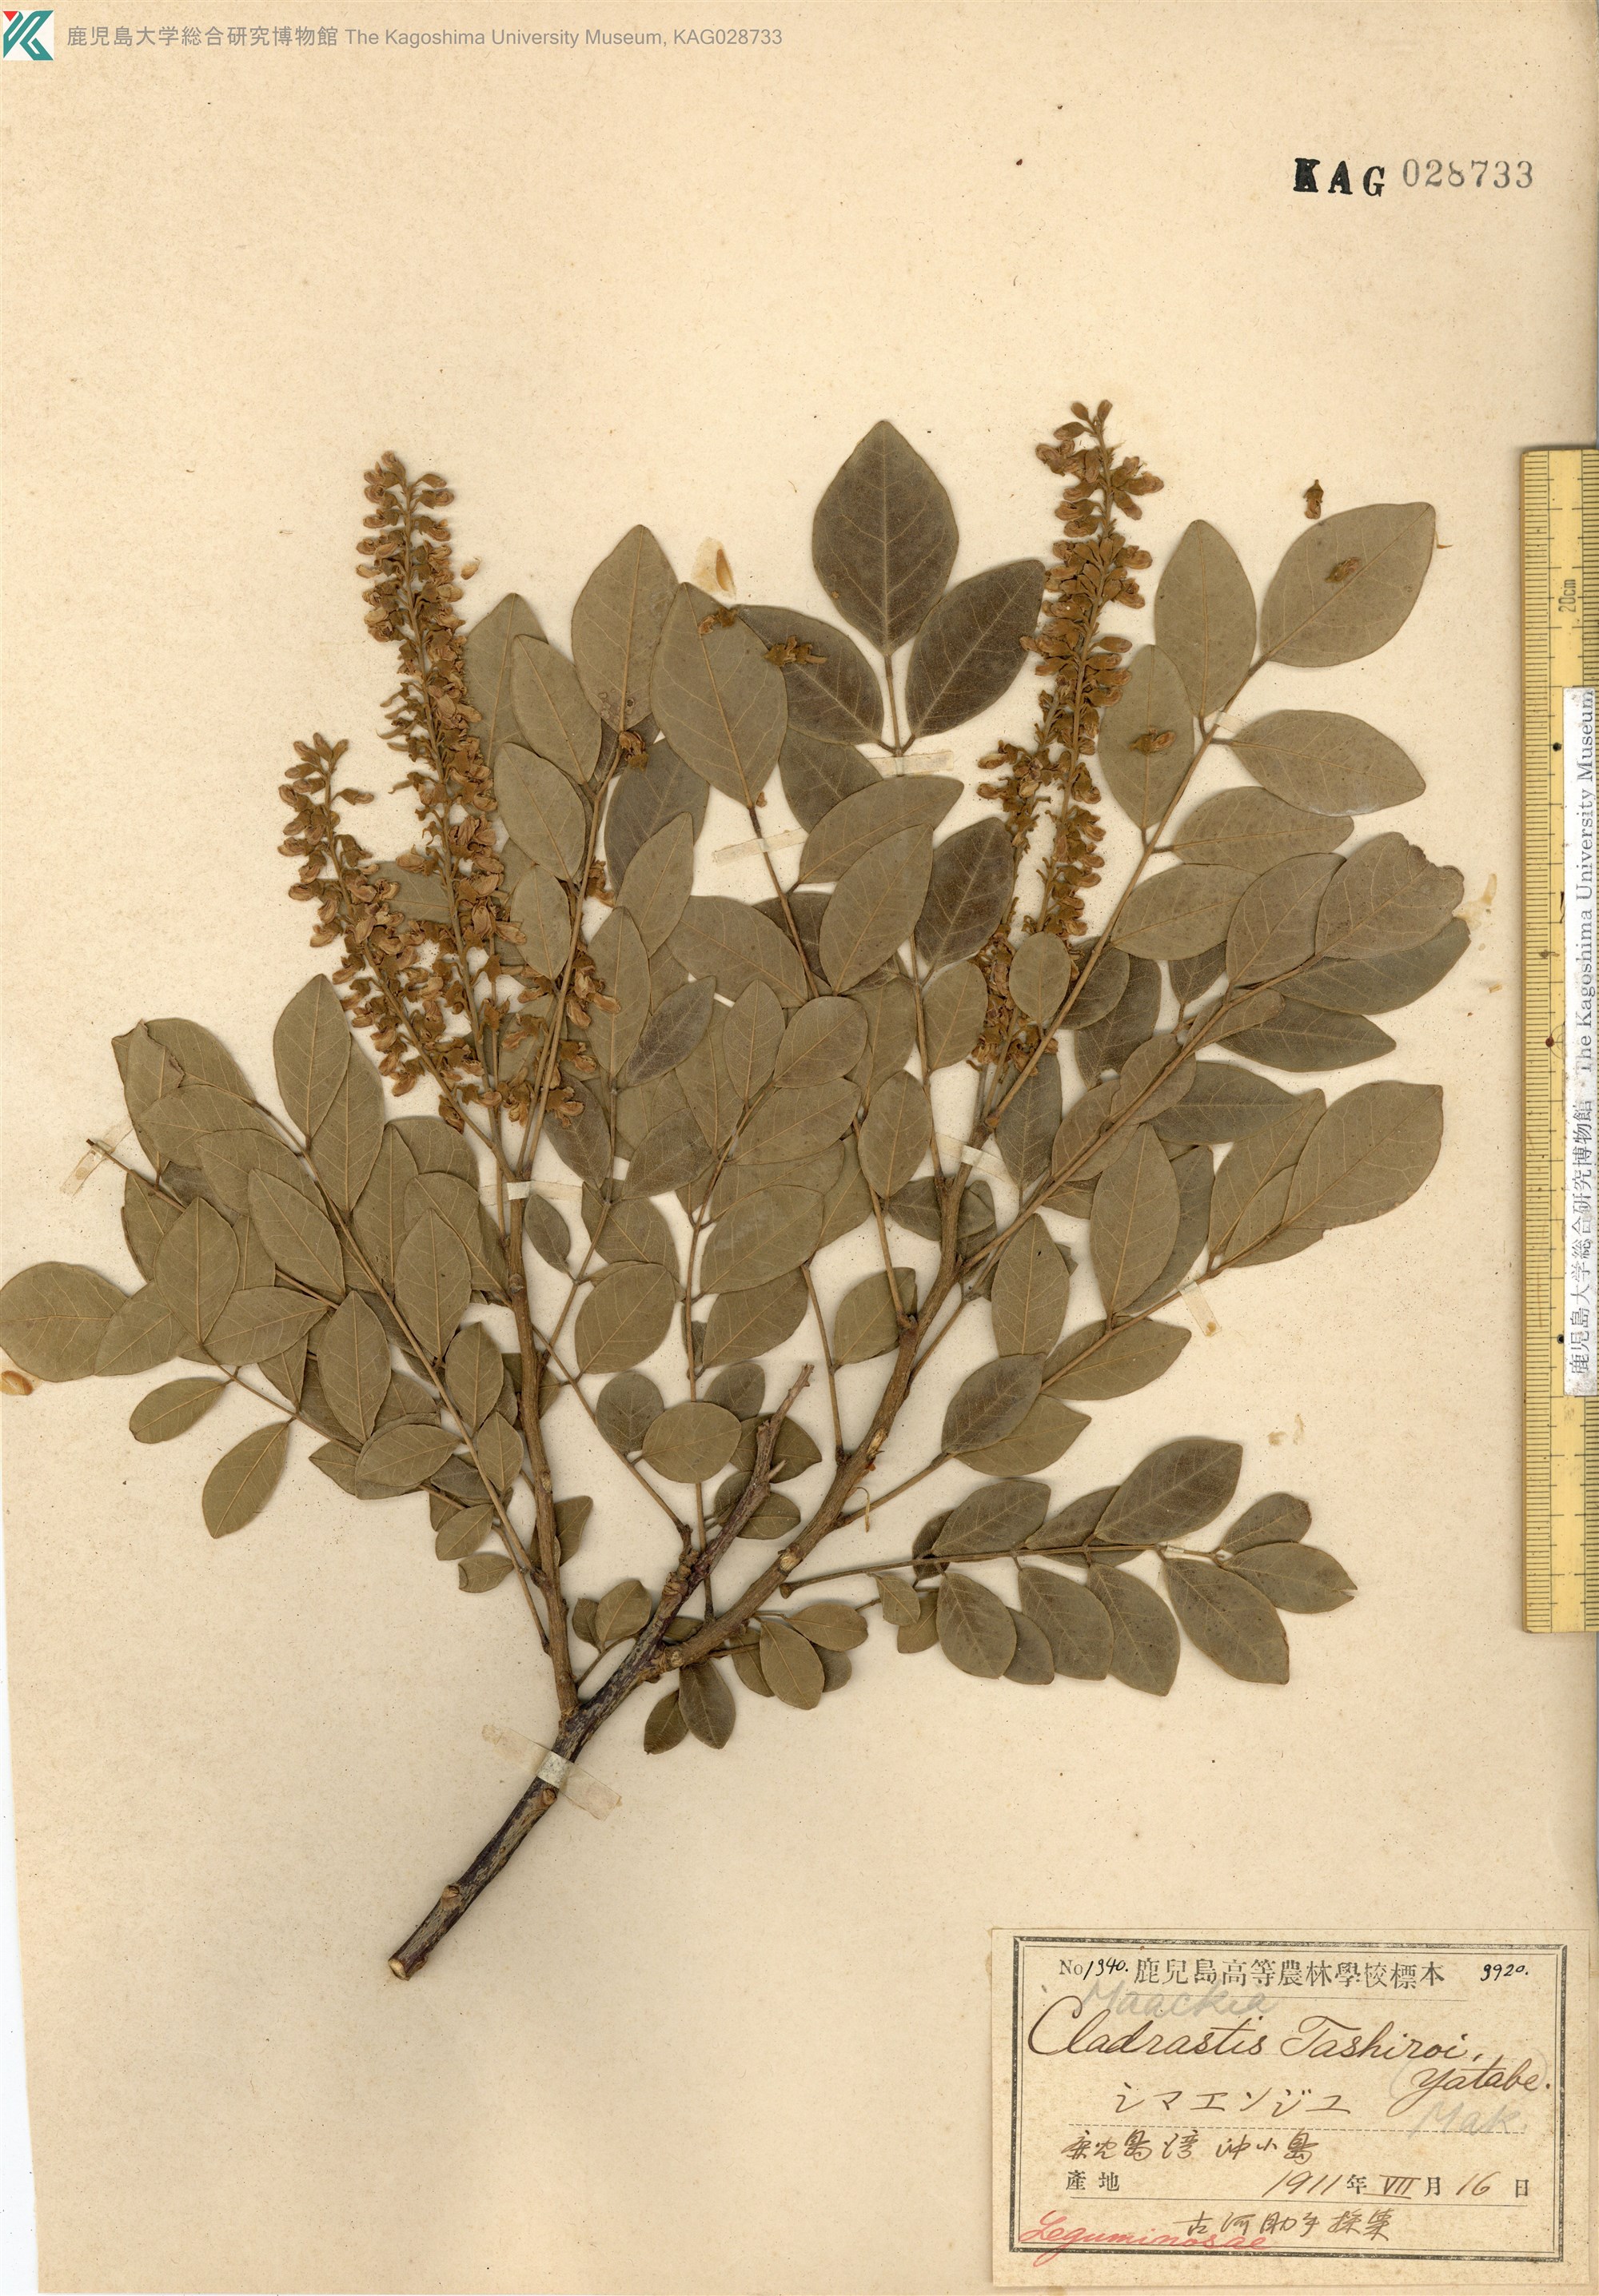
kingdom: Plantae
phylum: Tracheophyta
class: Magnoliopsida
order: Fabales
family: Fabaceae
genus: Maackia
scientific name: Maackia tashiroi
